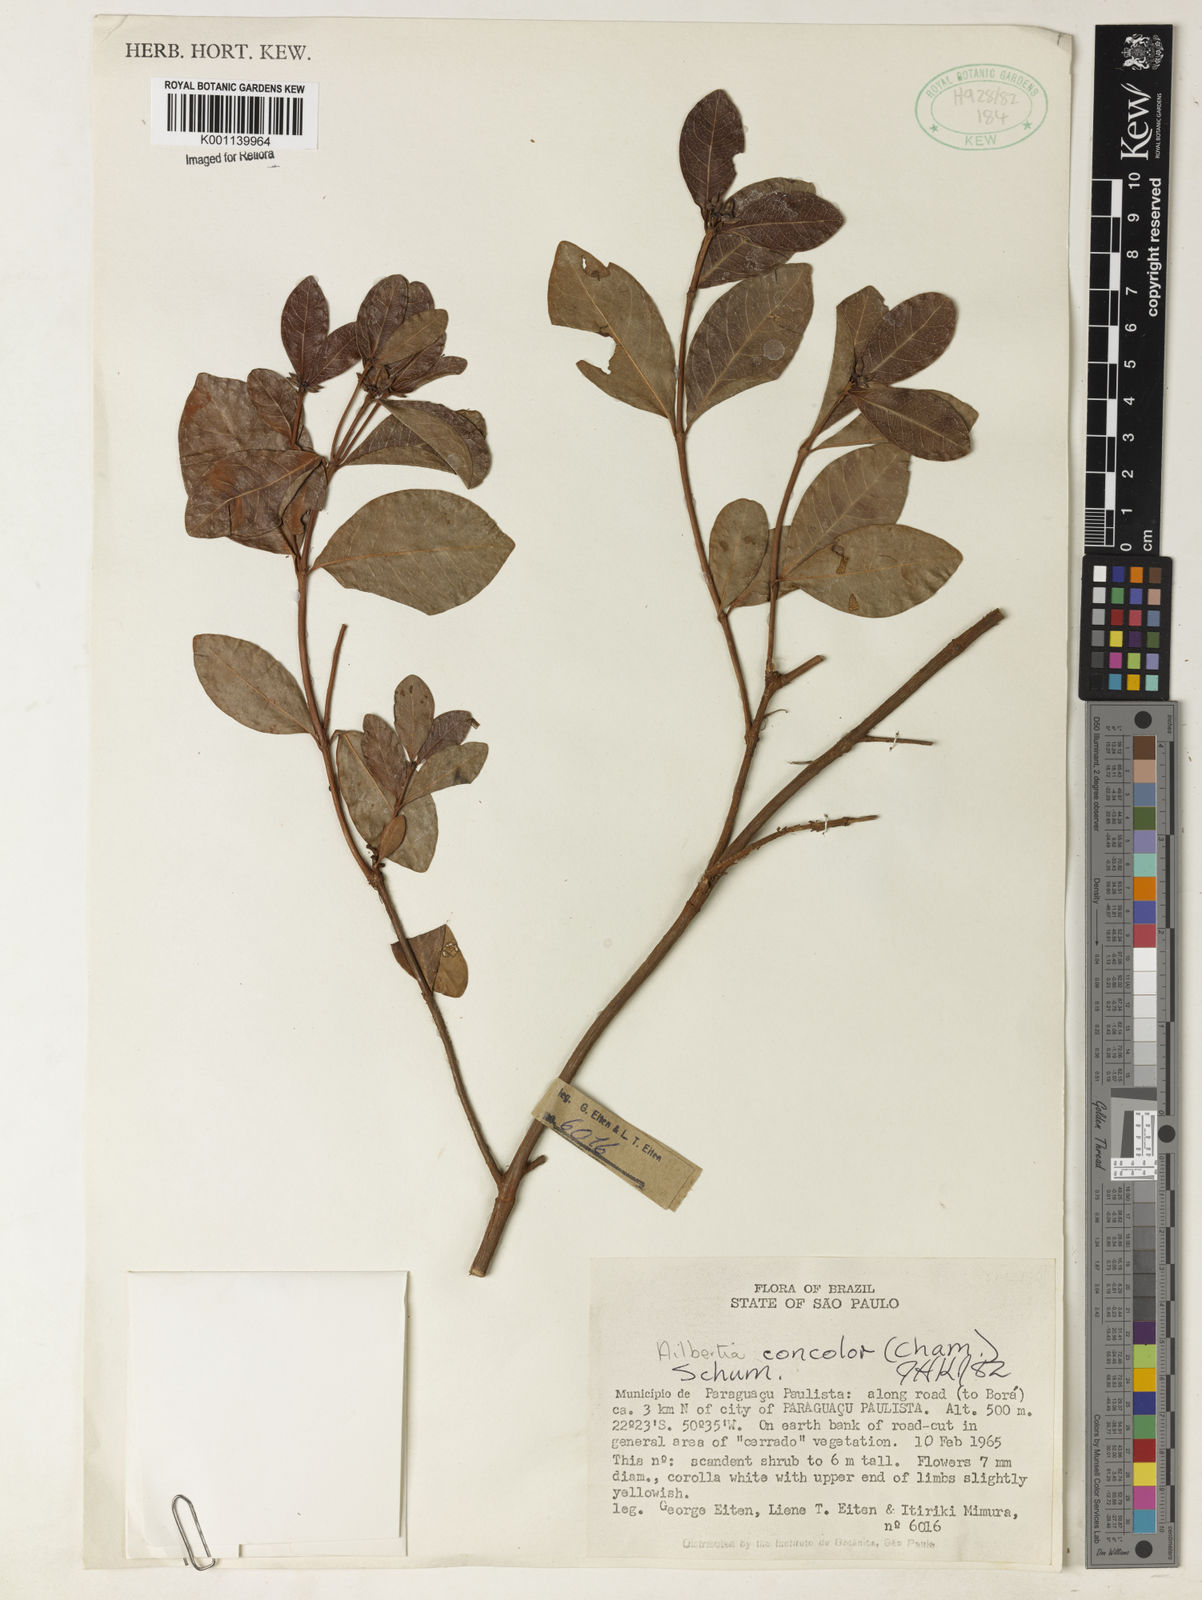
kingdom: Plantae
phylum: Tracheophyta
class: Magnoliopsida
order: Gentianales
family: Rubiaceae
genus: Cordiera
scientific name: Cordiera concolor
